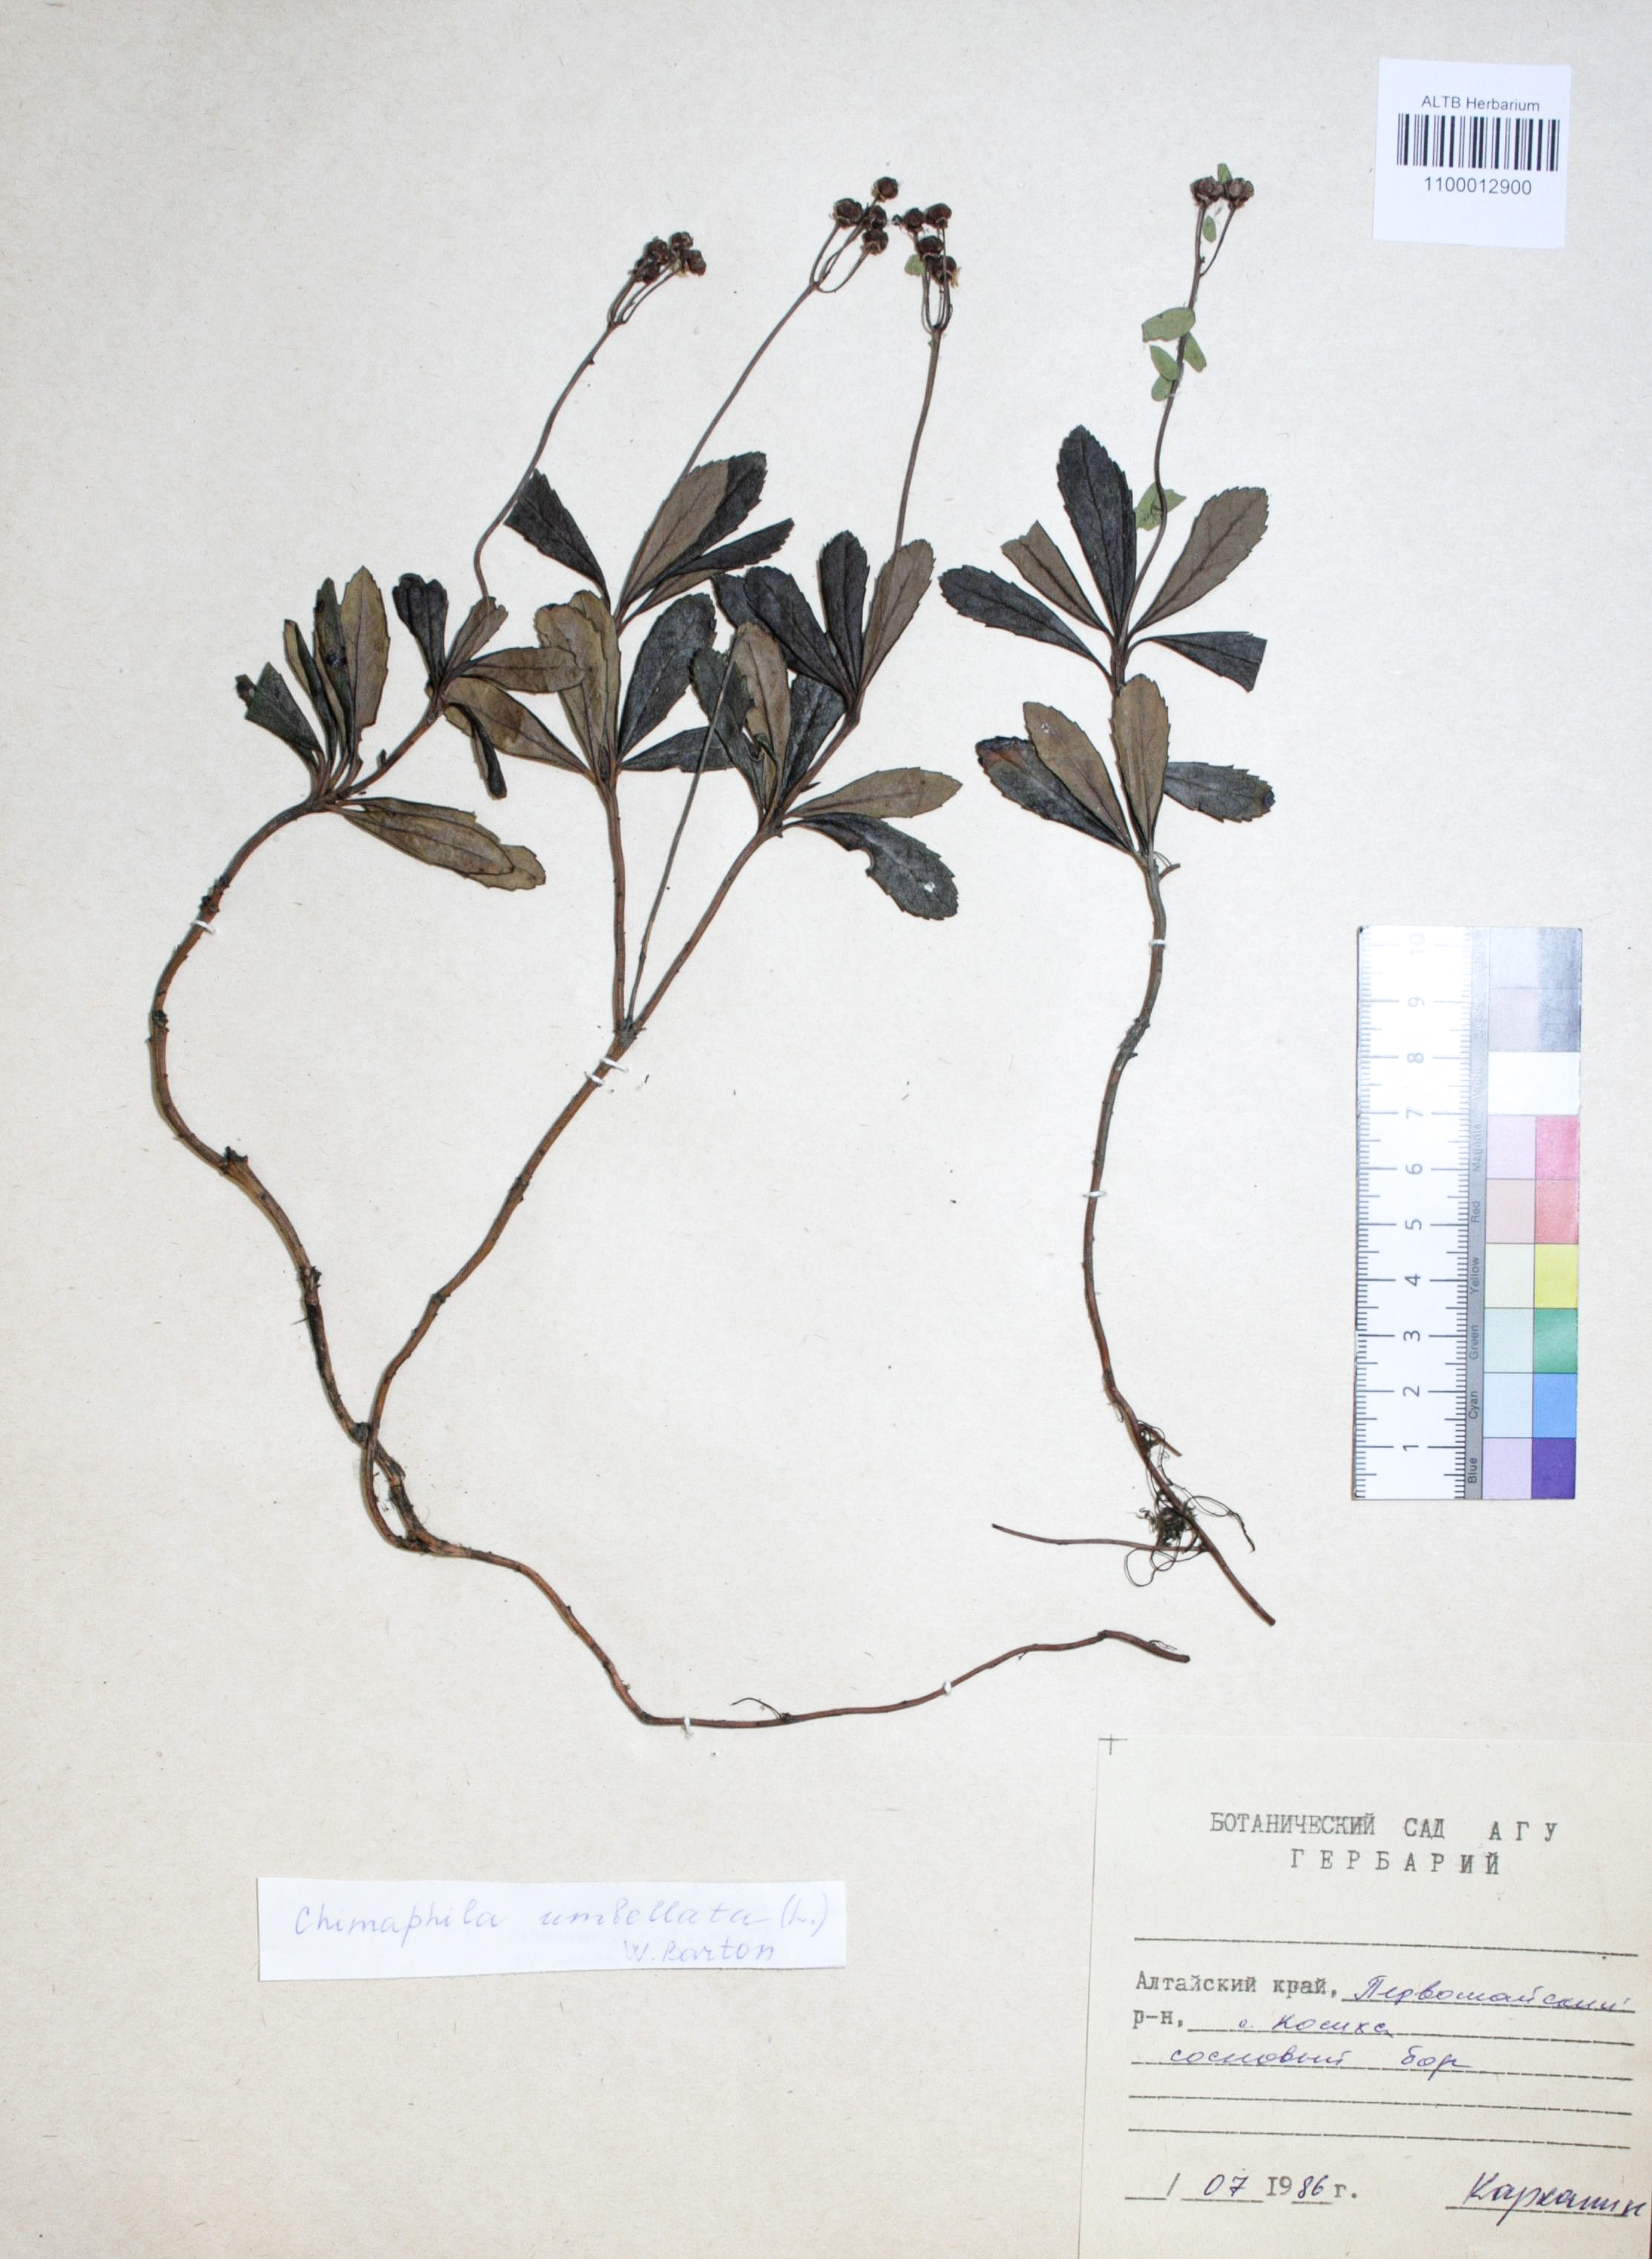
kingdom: Plantae
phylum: Tracheophyta
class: Magnoliopsida
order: Ericales
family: Ericaceae
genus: Chimaphila
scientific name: Chimaphila umbellata
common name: Pipsissewa
